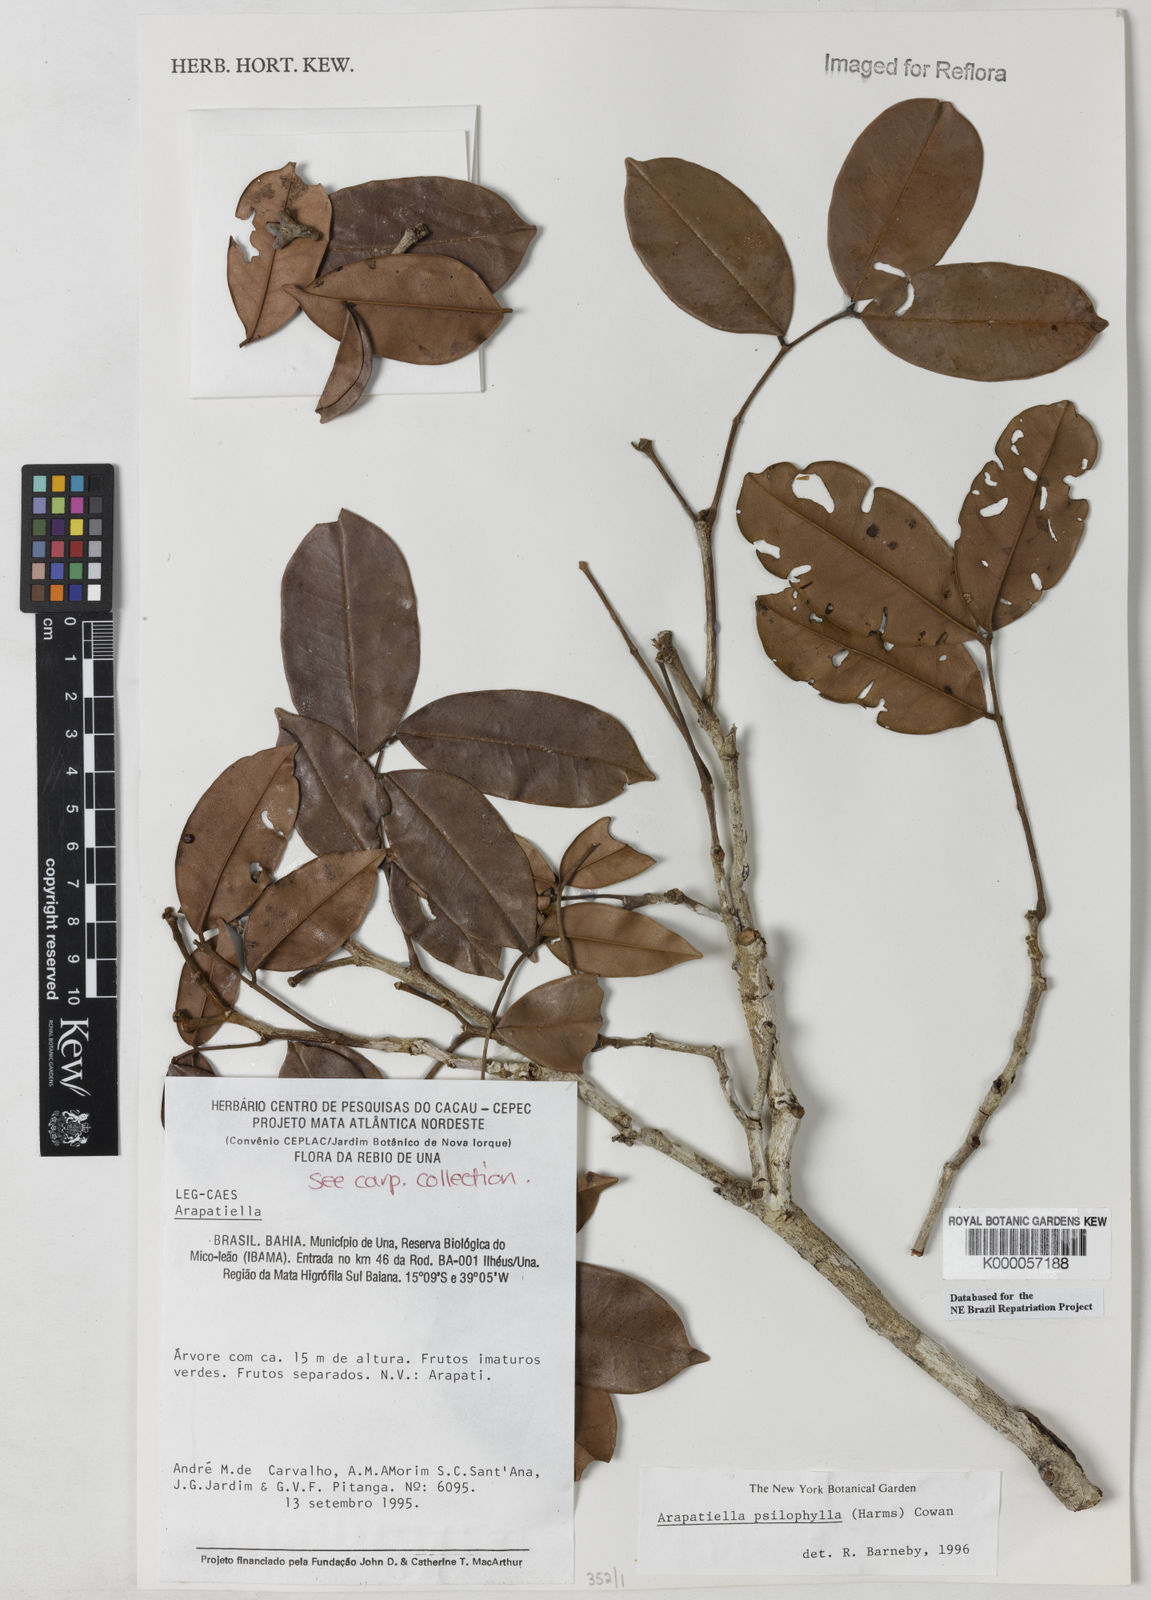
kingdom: Plantae
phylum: Tracheophyta
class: Magnoliopsida
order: Fabales
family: Fabaceae
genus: Arapatiella
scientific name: Arapatiella psilophylla
